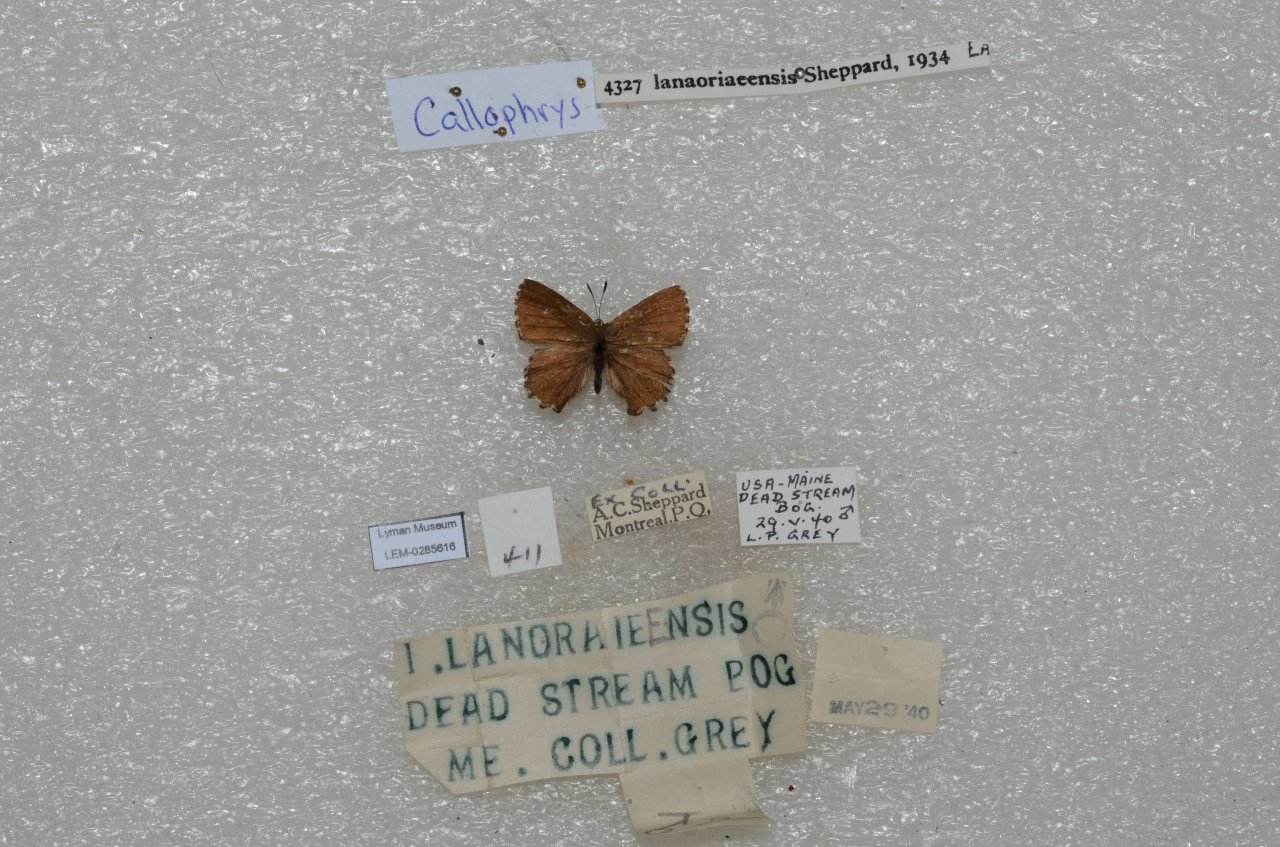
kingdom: Animalia
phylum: Arthropoda
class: Insecta
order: Lepidoptera
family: Lycaenidae
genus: Incisalia
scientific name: Incisalia lanoraieensis
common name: Bog Elfin
